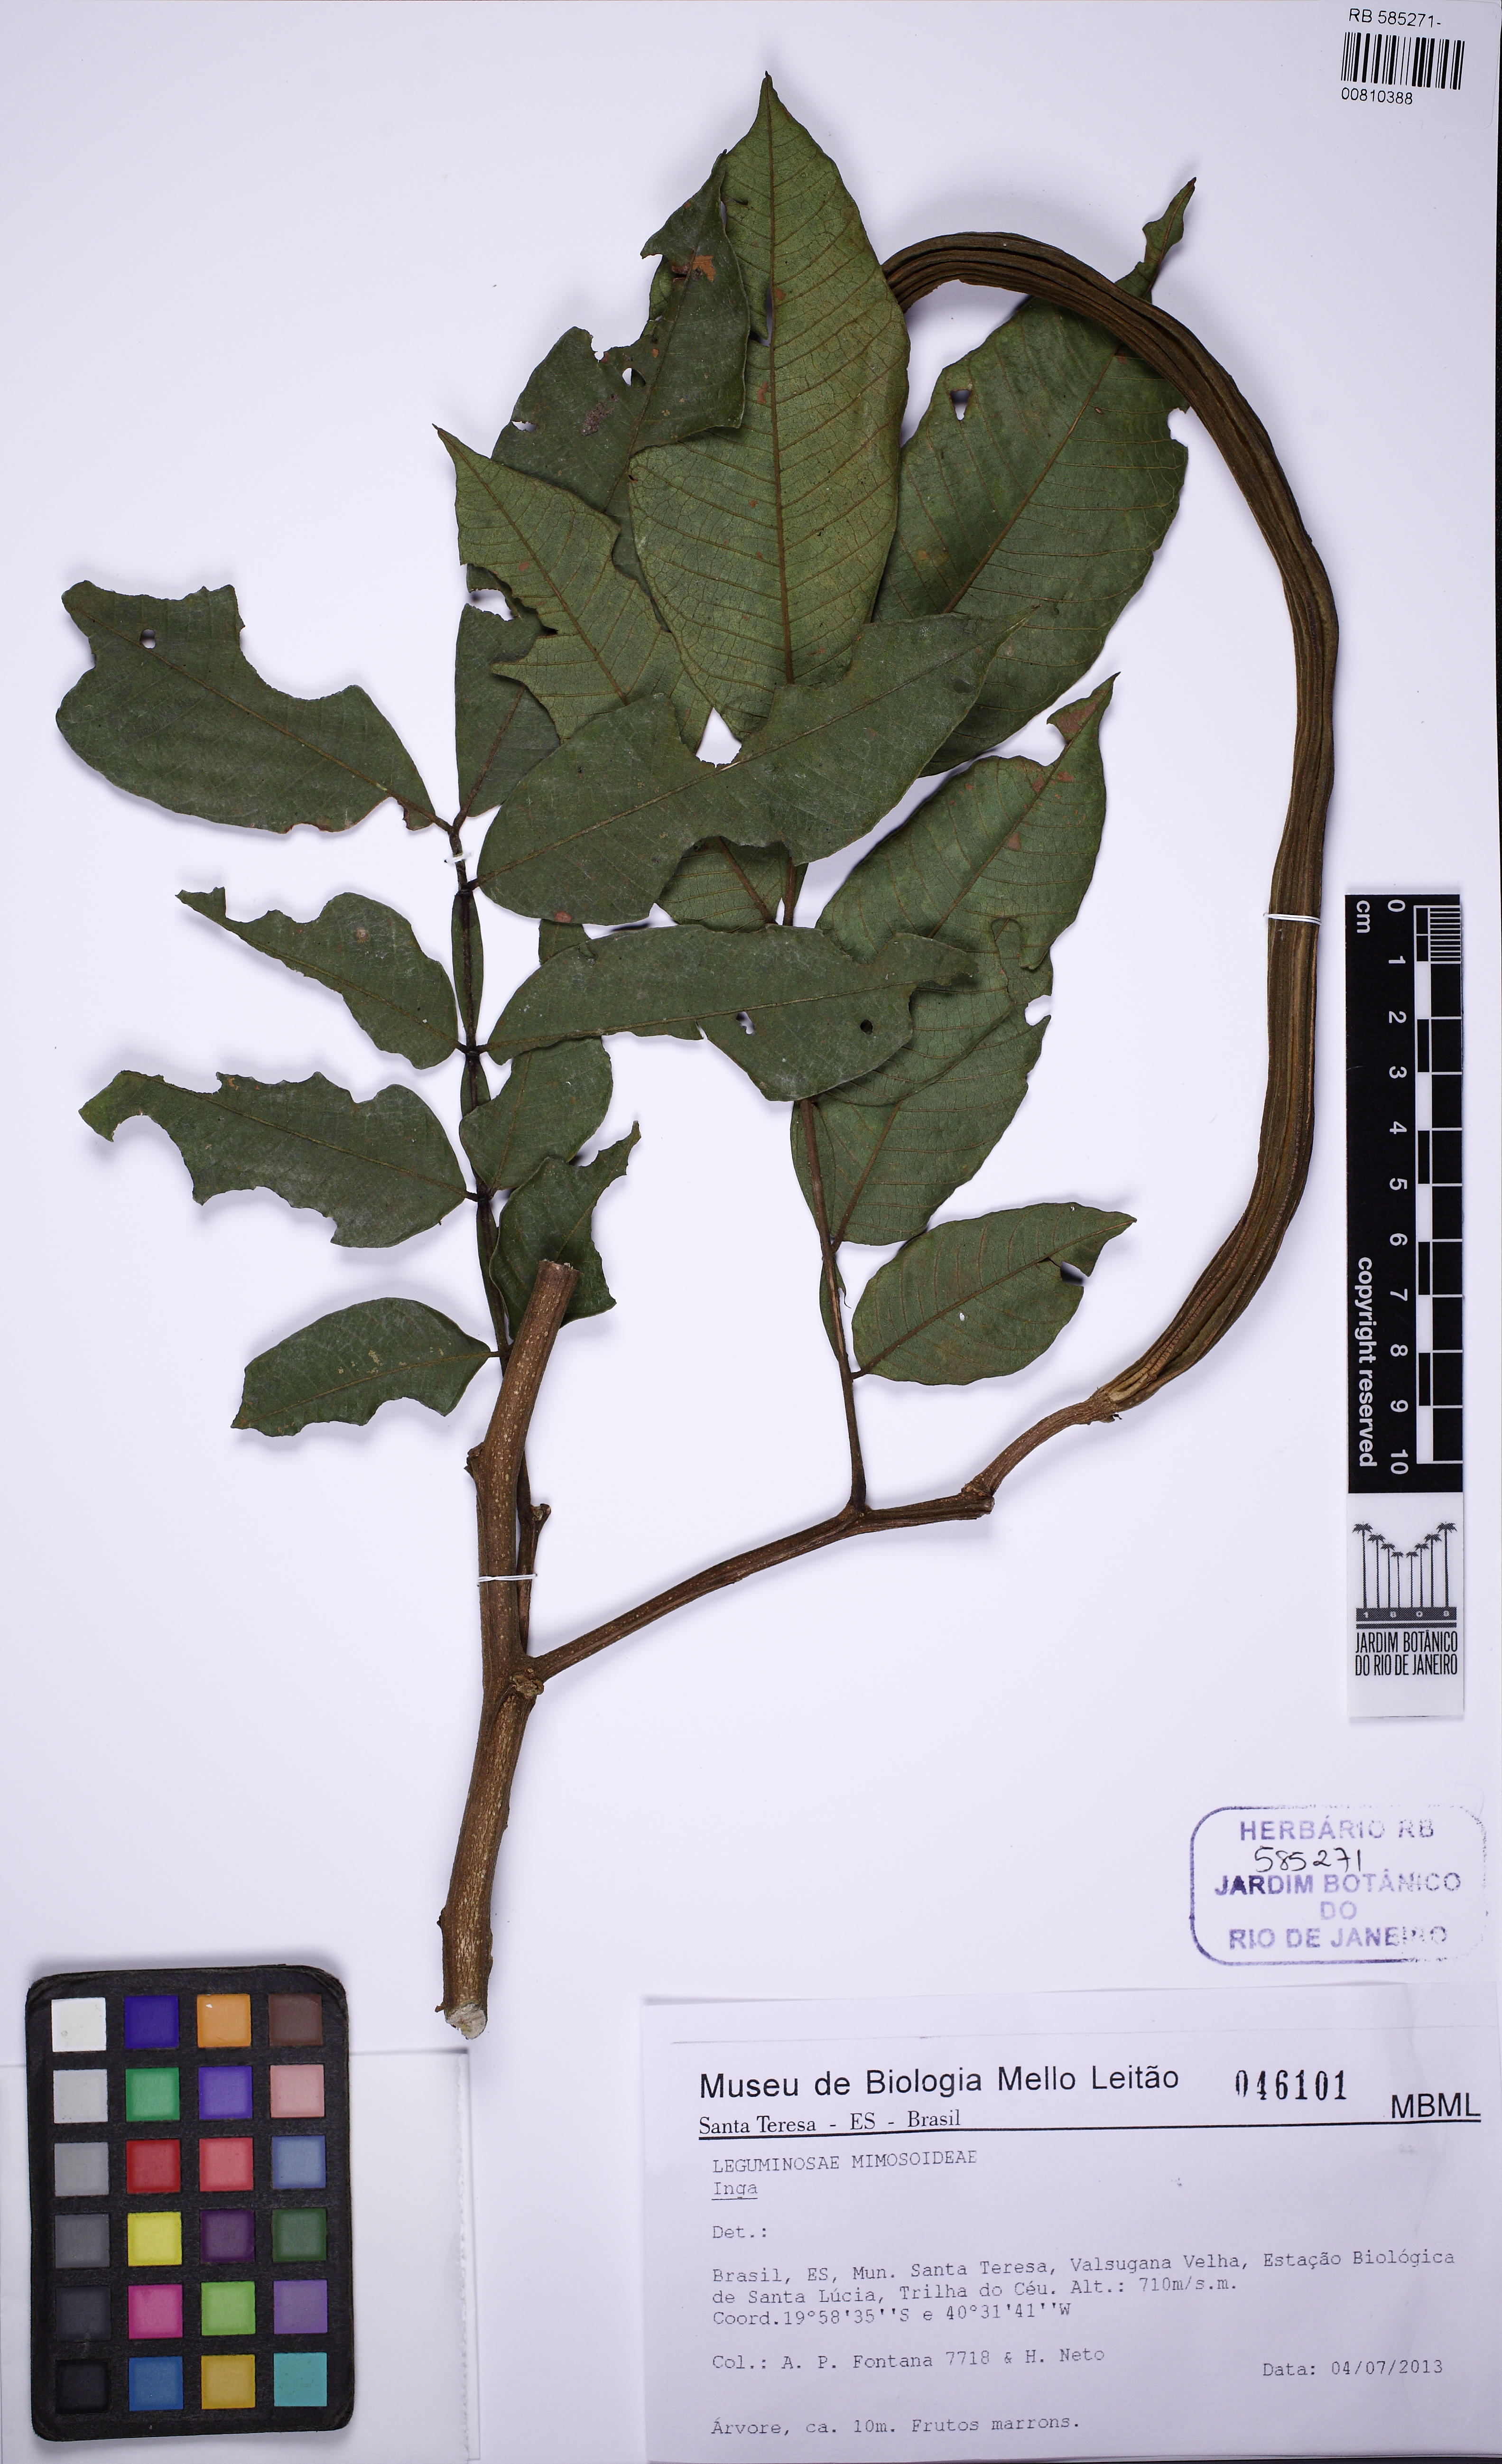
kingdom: Plantae
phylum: Tracheophyta
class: Magnoliopsida
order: Fabales
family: Fabaceae
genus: Inga
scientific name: Inga edulis
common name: Ice cream bean
